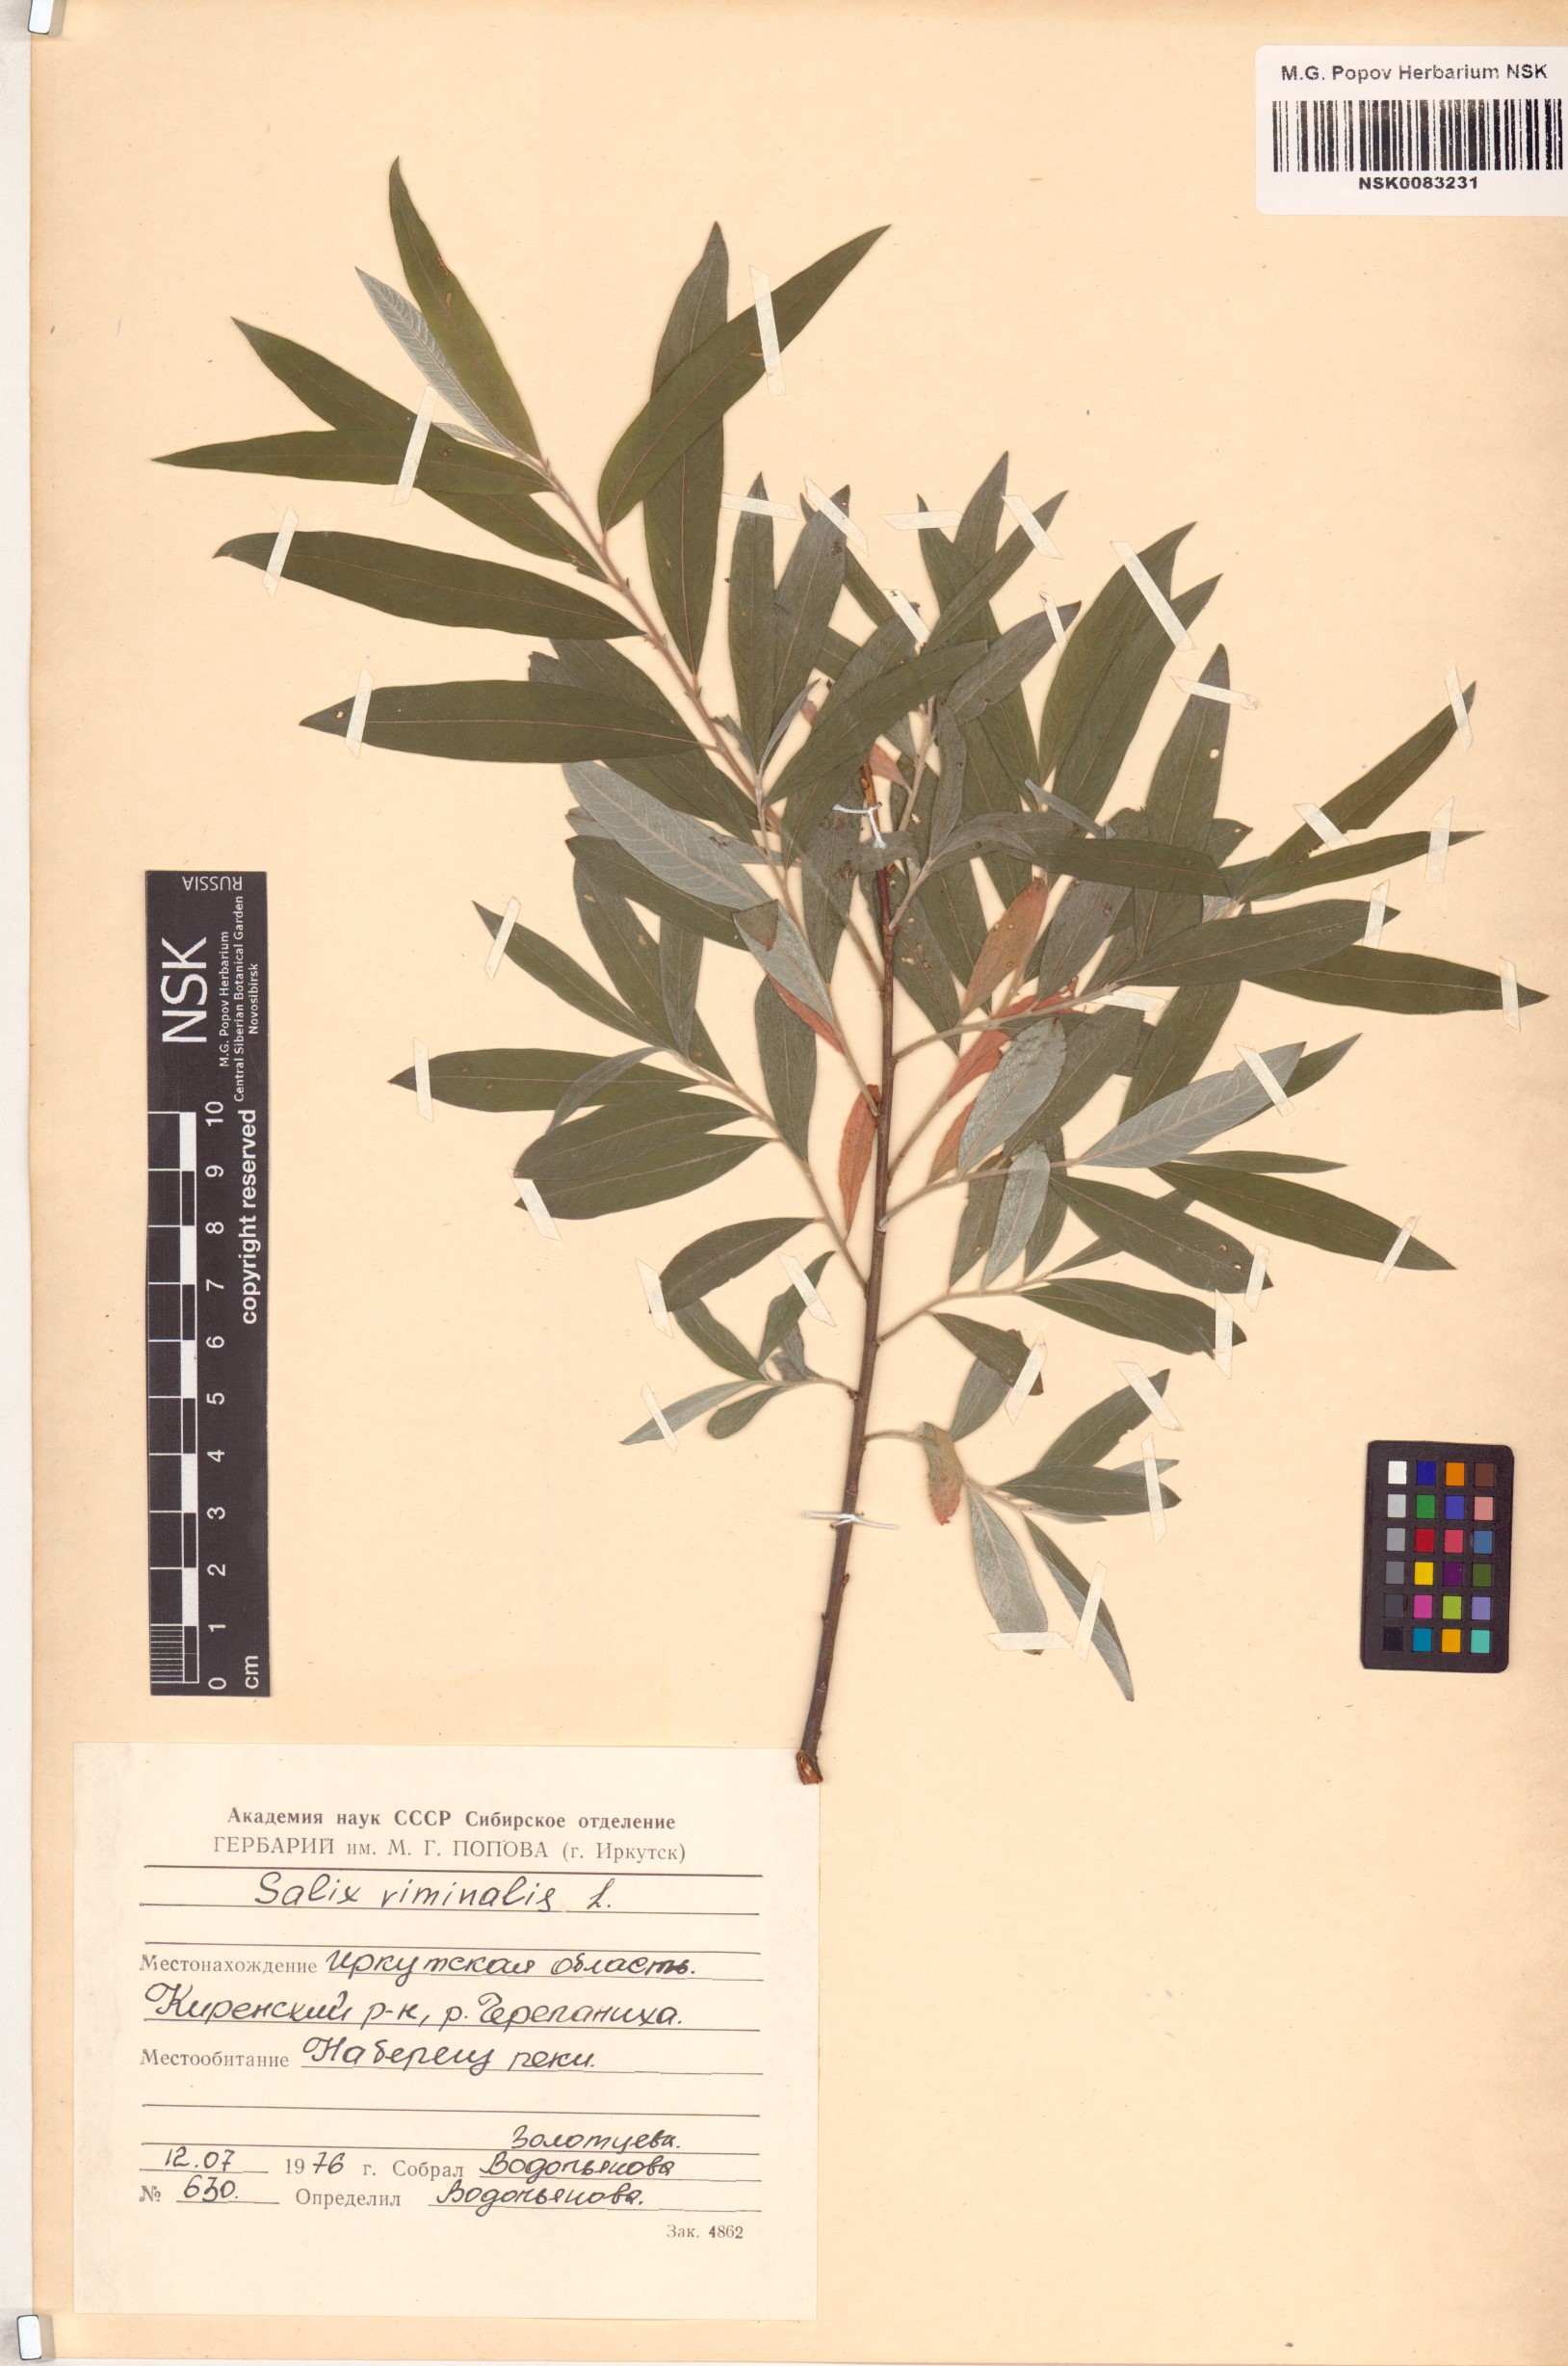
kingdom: Plantae
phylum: Tracheophyta
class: Magnoliopsida
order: Malpighiales
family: Salicaceae
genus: Salix
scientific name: Salix viminalis
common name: Osier
